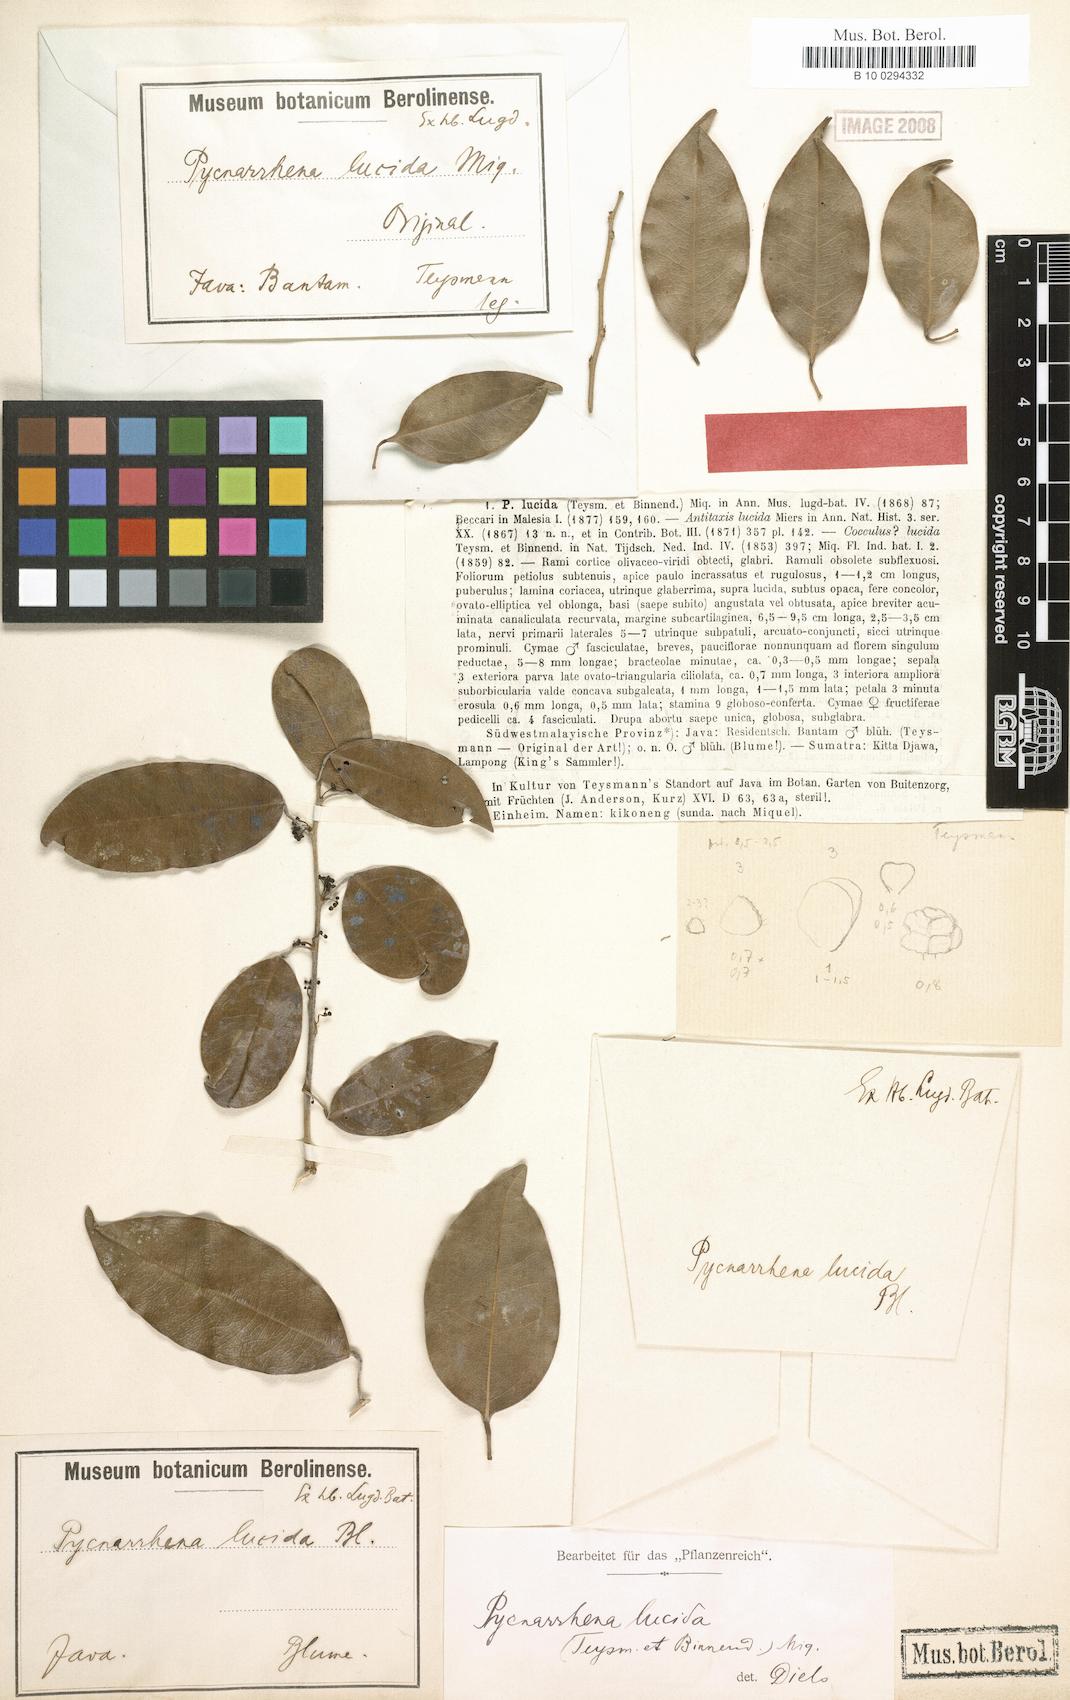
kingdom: Plantae
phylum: Tracheophyta
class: Magnoliopsida
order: Ranunculales
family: Menispermaceae
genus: Pycnarrhena
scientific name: Pycnarrhena lucida
